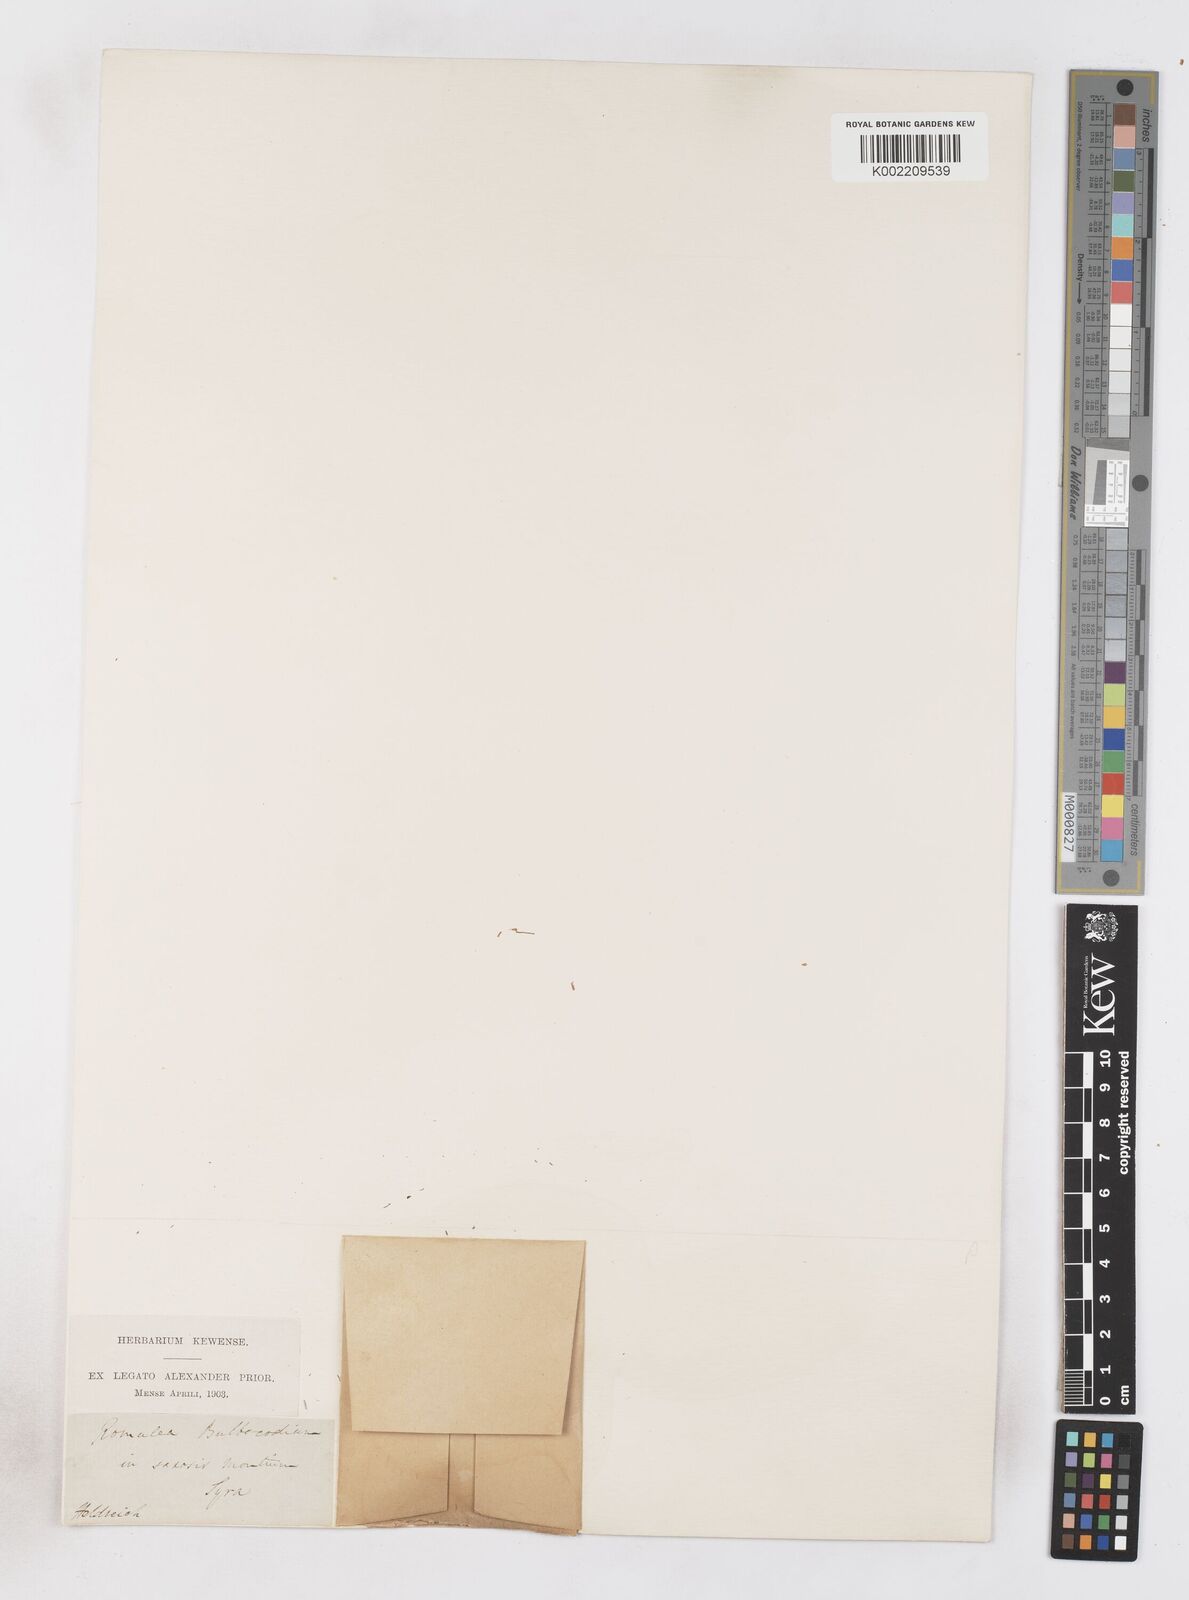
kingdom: Plantae
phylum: Tracheophyta
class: Liliopsida
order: Asparagales
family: Iridaceae
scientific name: Iridaceae
